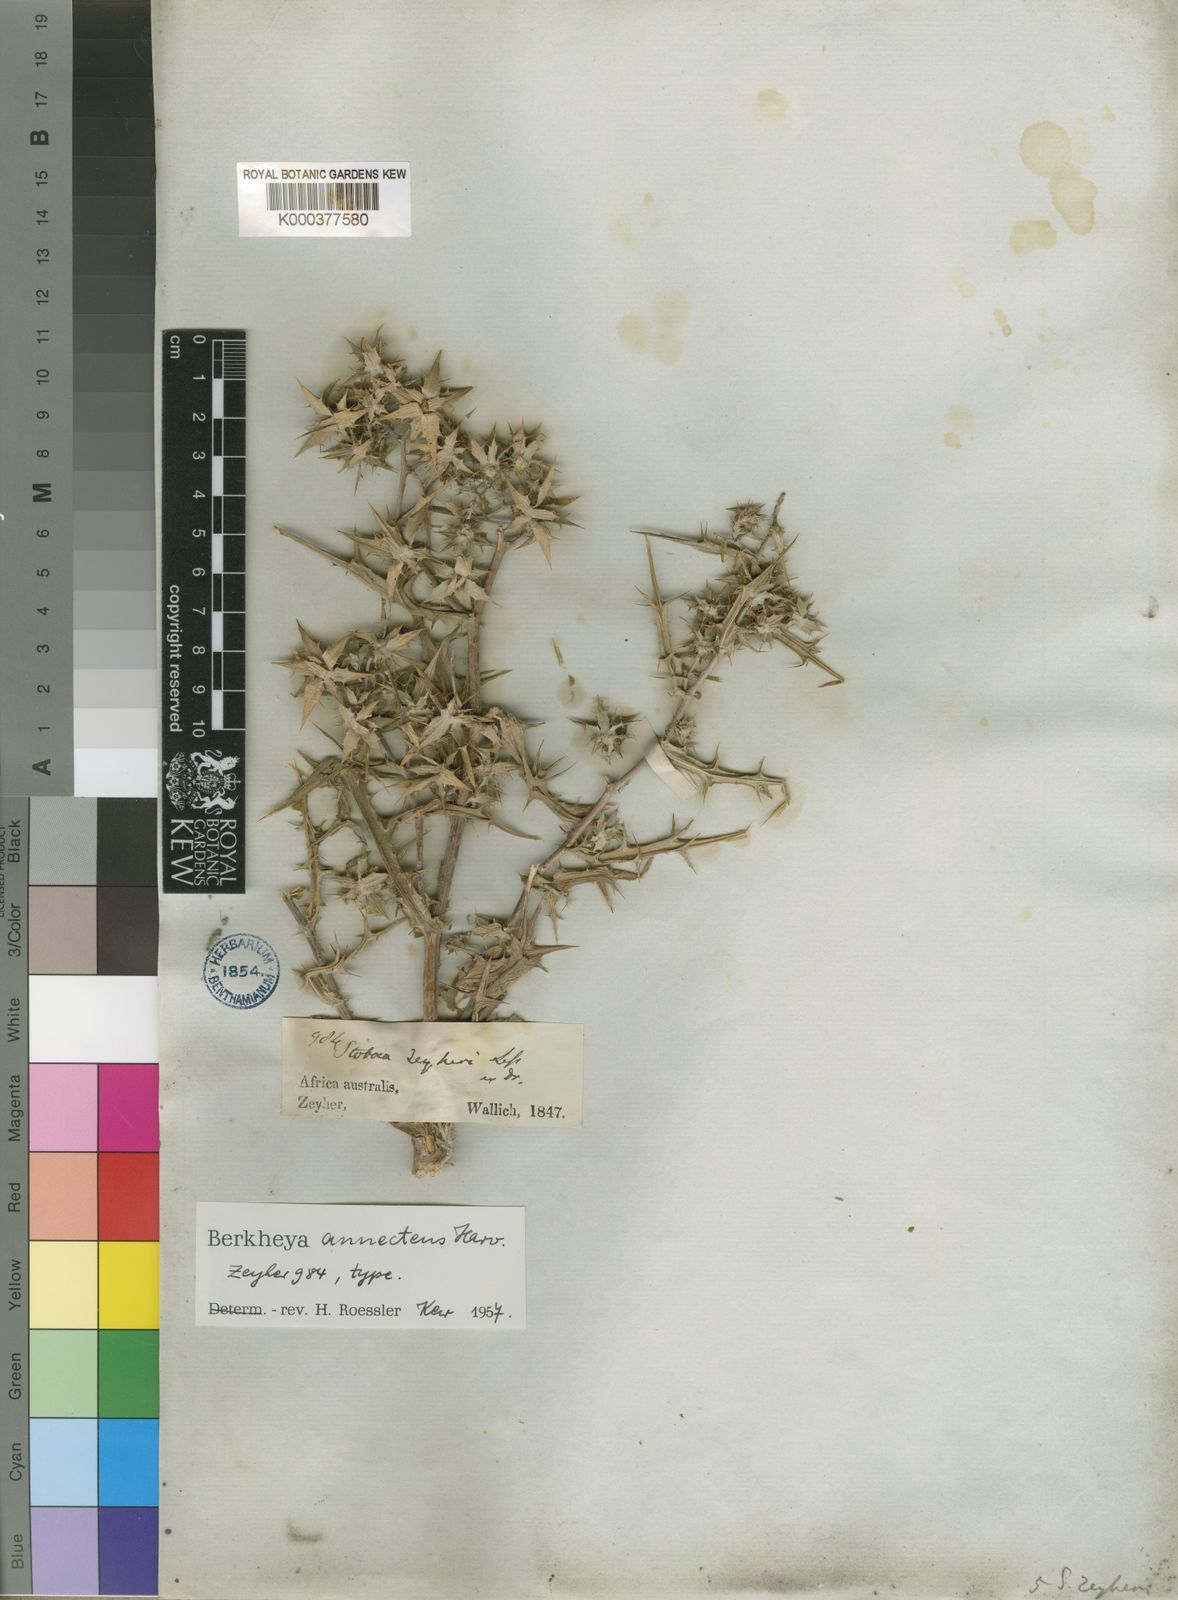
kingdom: Plantae
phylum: Tracheophyta
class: Magnoliopsida
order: Asterales
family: Asteraceae
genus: Berkheya
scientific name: Berkheya annectens
